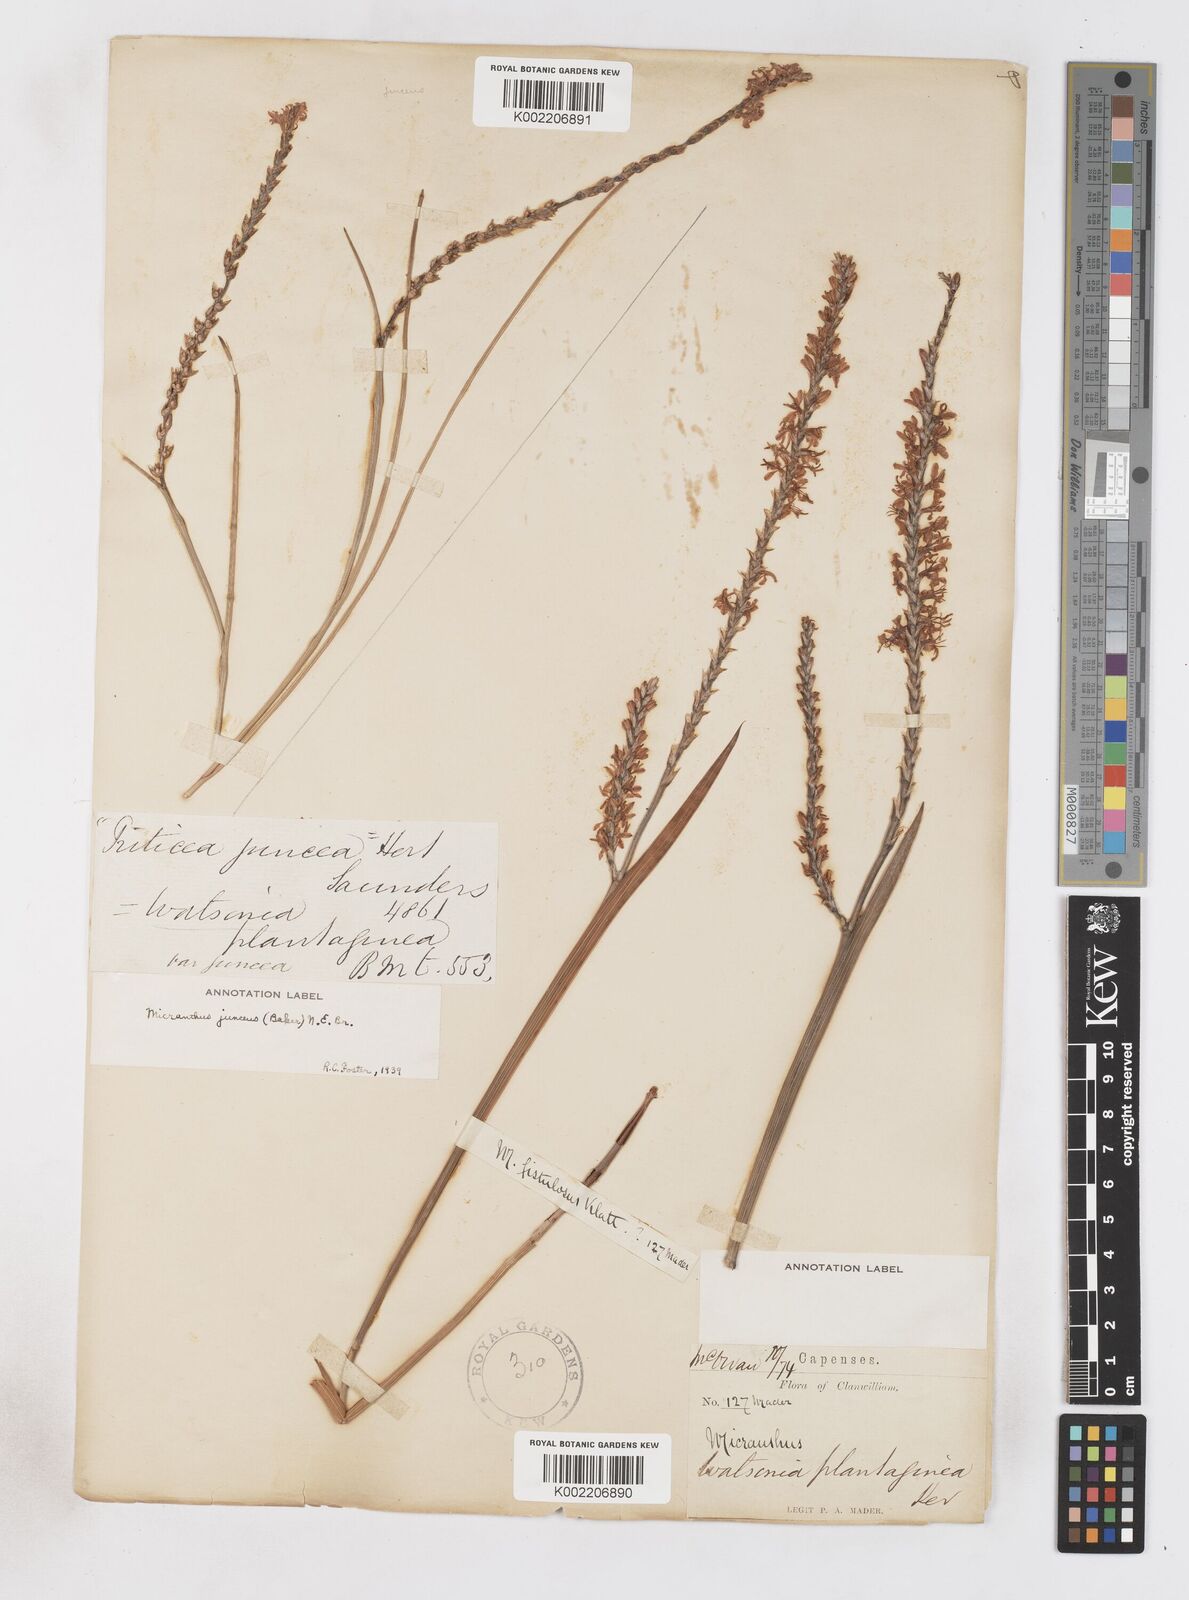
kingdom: Plantae
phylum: Tracheophyta
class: Liliopsida
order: Asparagales
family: Iridaceae
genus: Micranthus
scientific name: Micranthus plantagineus
